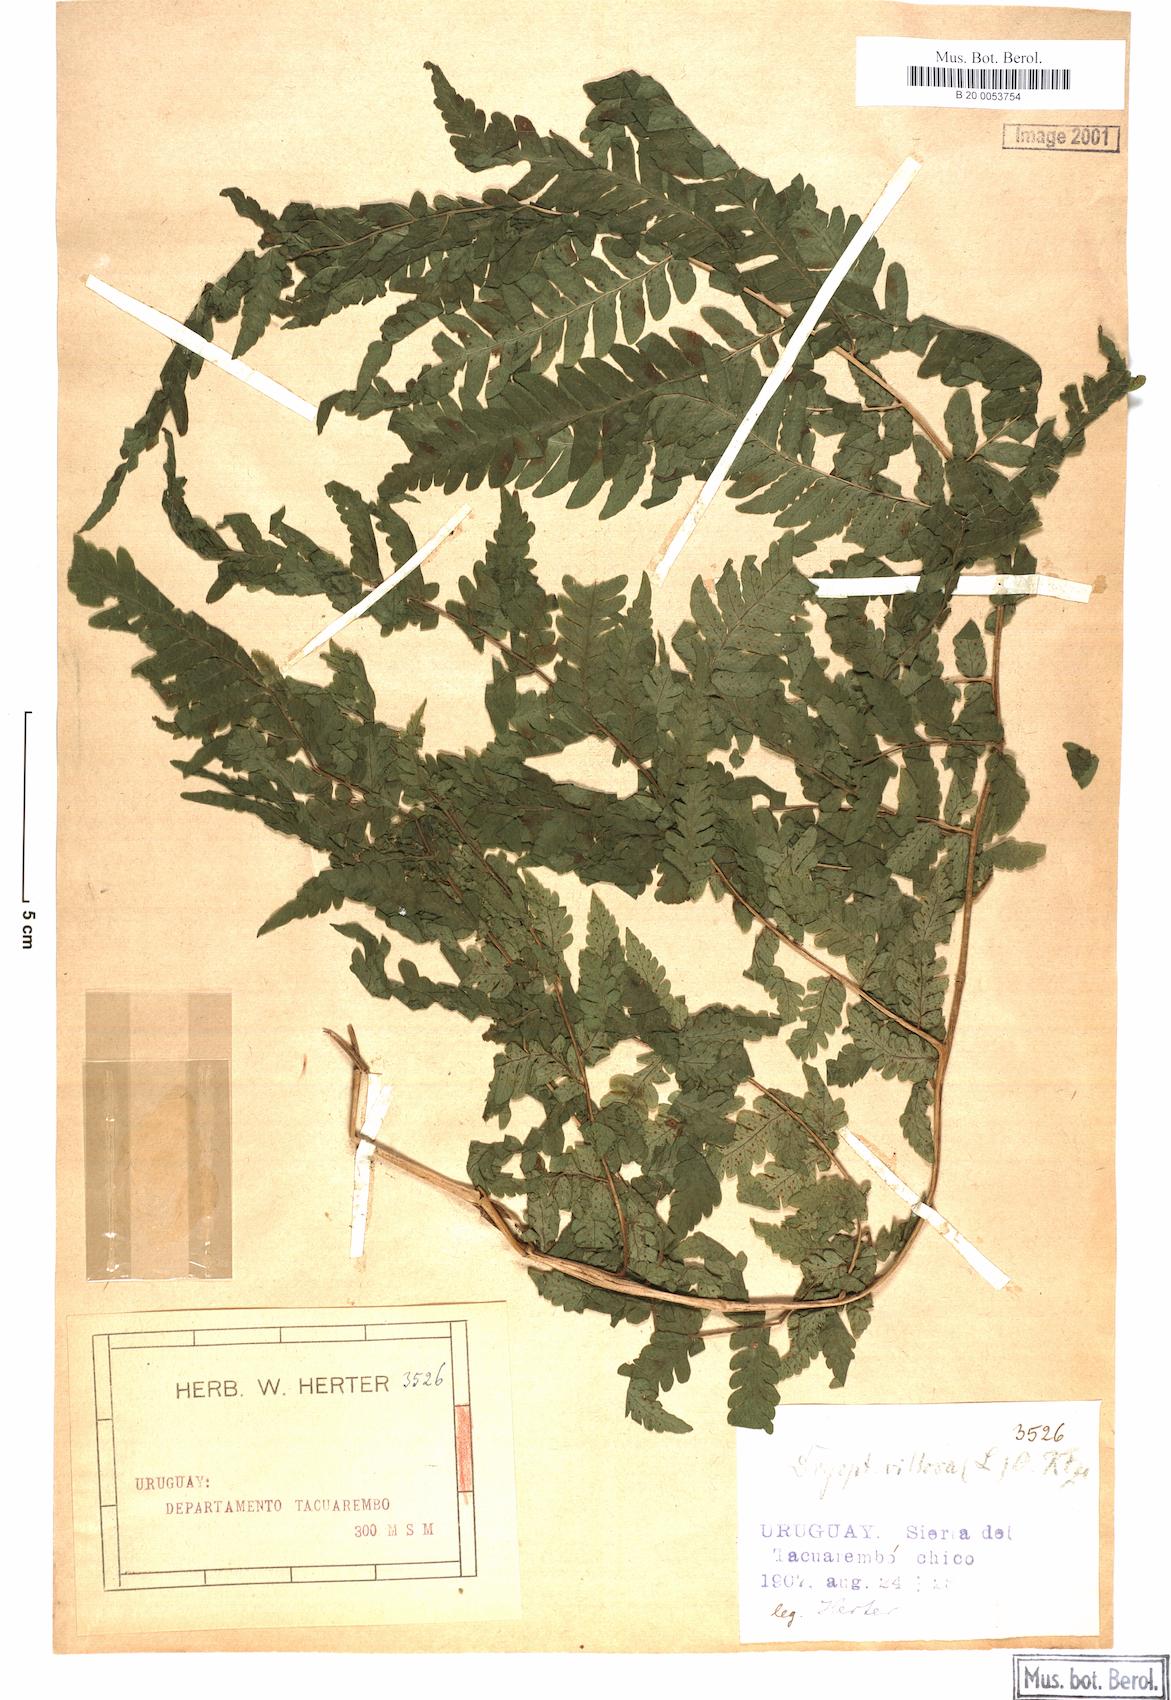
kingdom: Plantae
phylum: Tracheophyta
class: Polypodiopsida
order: Polypodiales
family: Dryopteridaceae
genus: Megalastrum
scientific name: Megalastrum villosum
